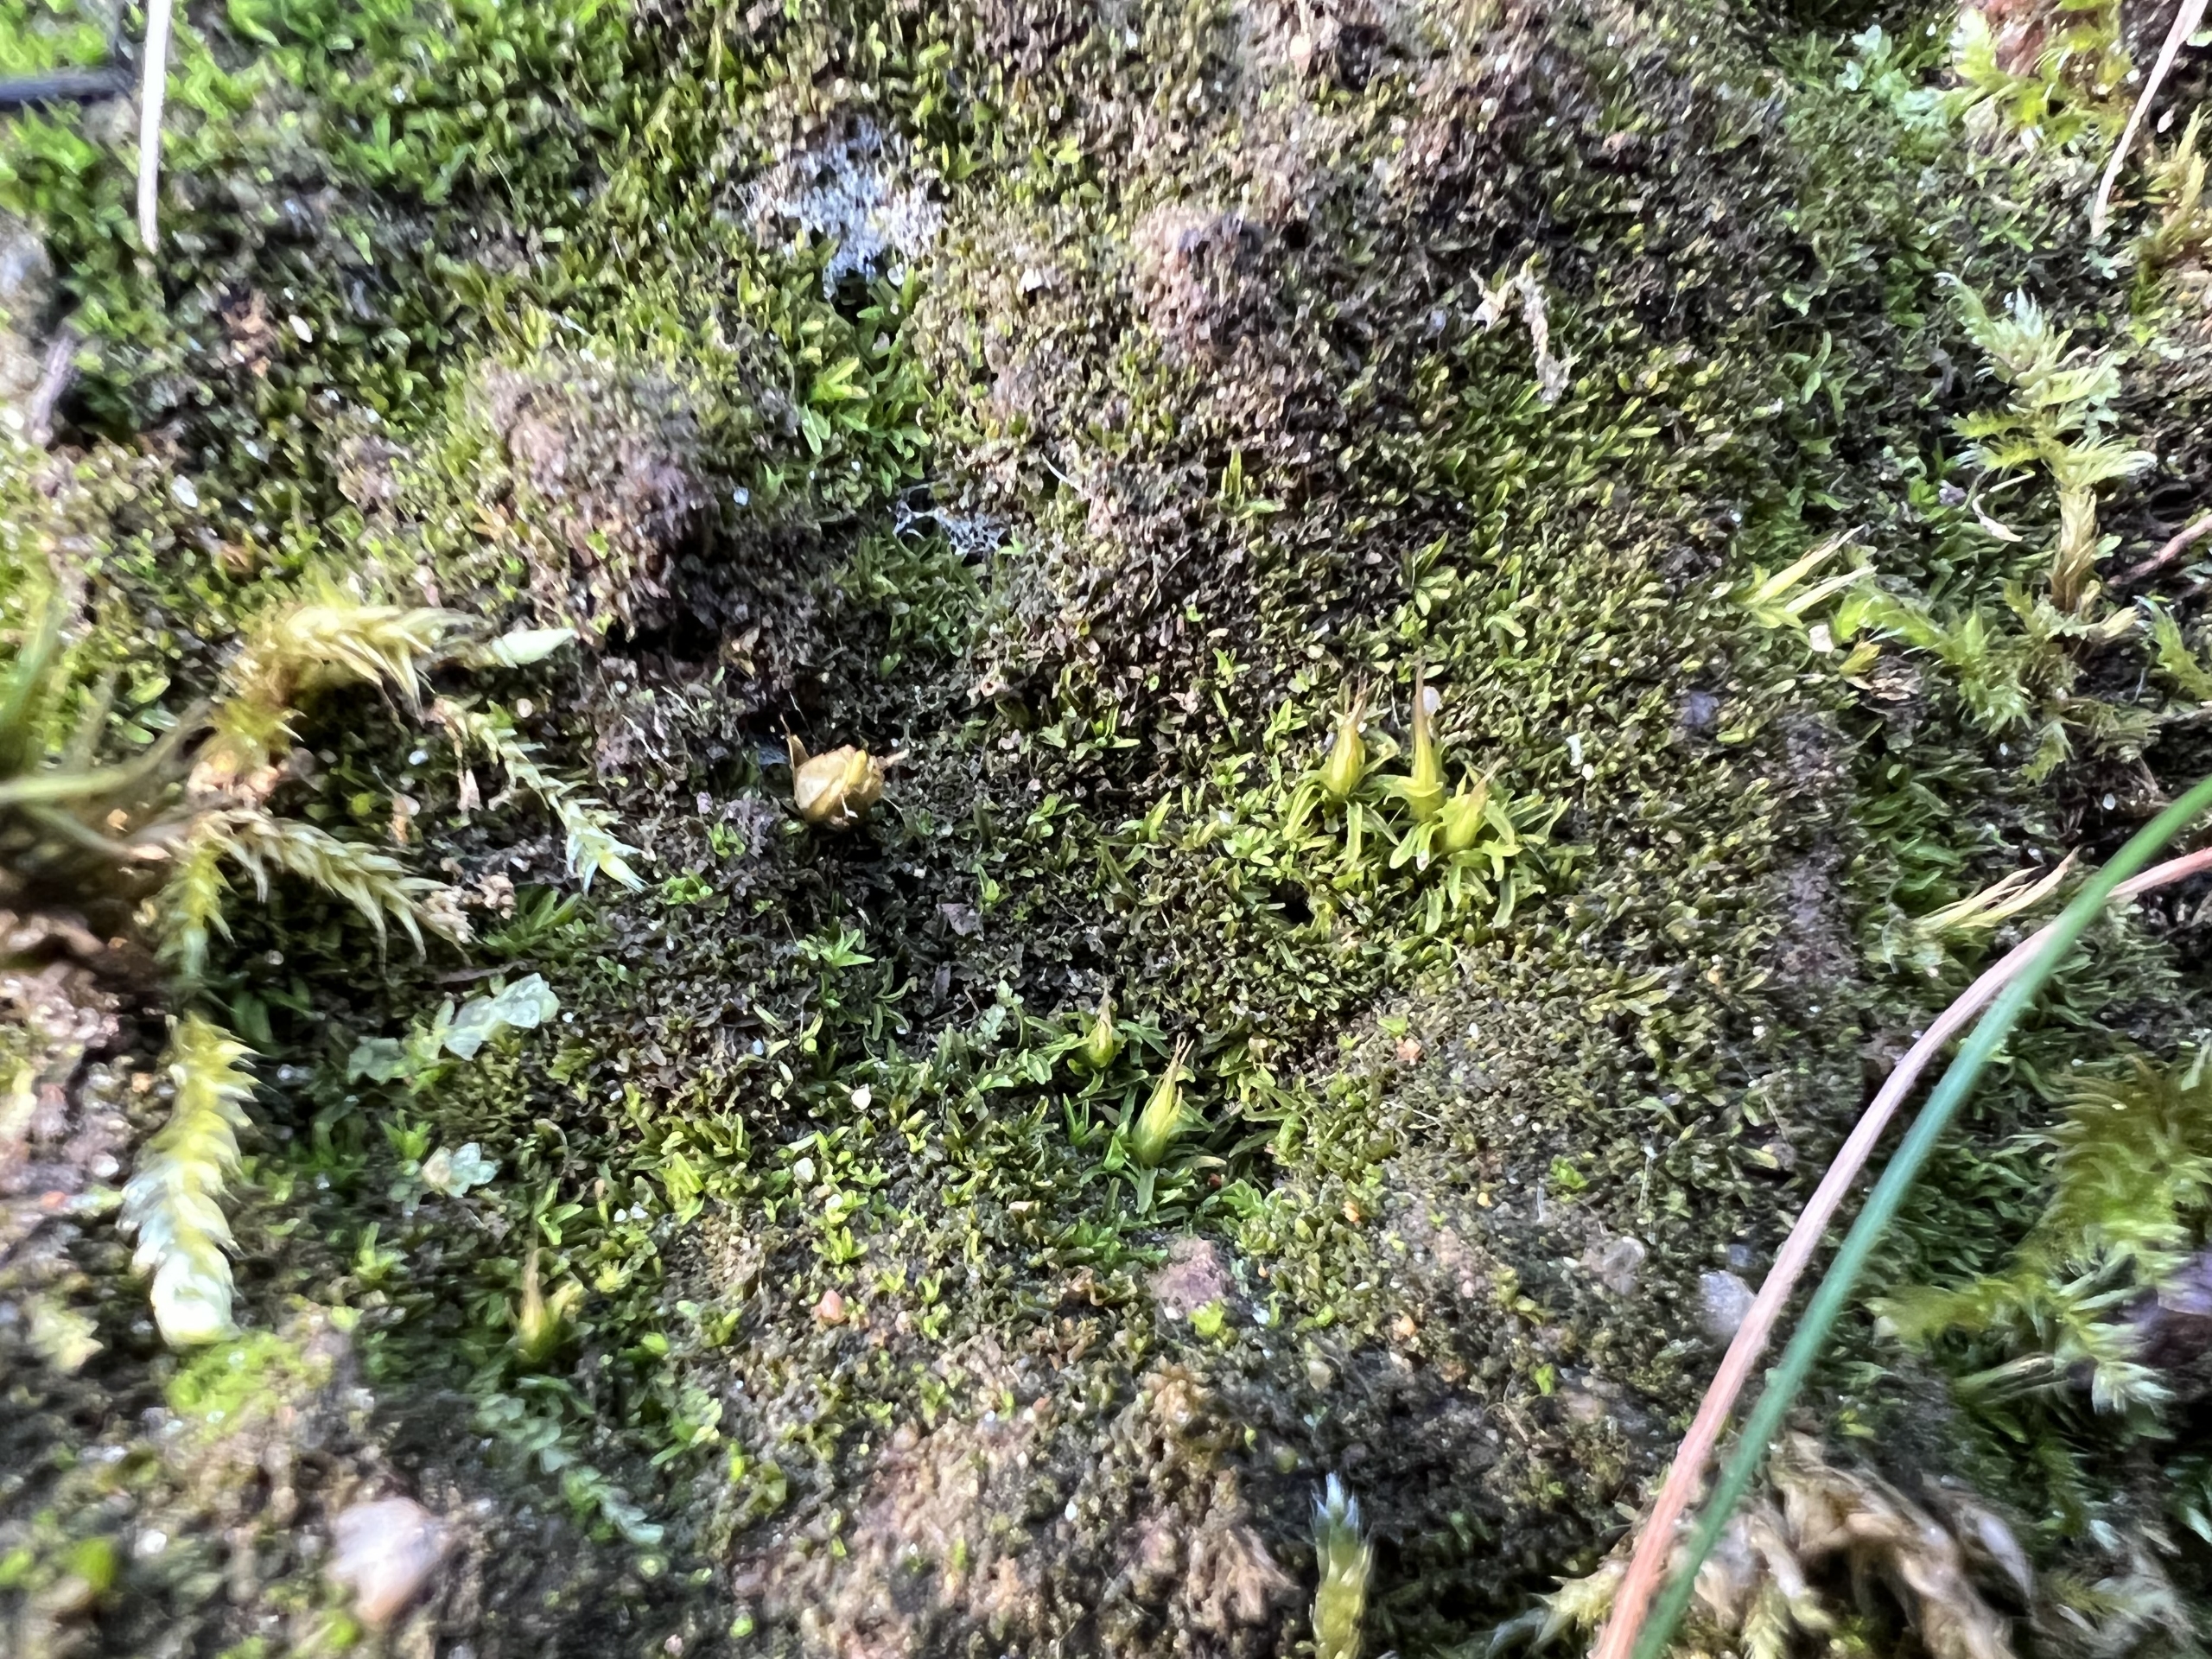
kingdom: Plantae
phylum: Bryophyta
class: Bryopsida
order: Diphysciales
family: Diphysciaceae
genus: Diphyscium
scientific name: Diphyscium foliosum
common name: Stilkløs sækkapsel
